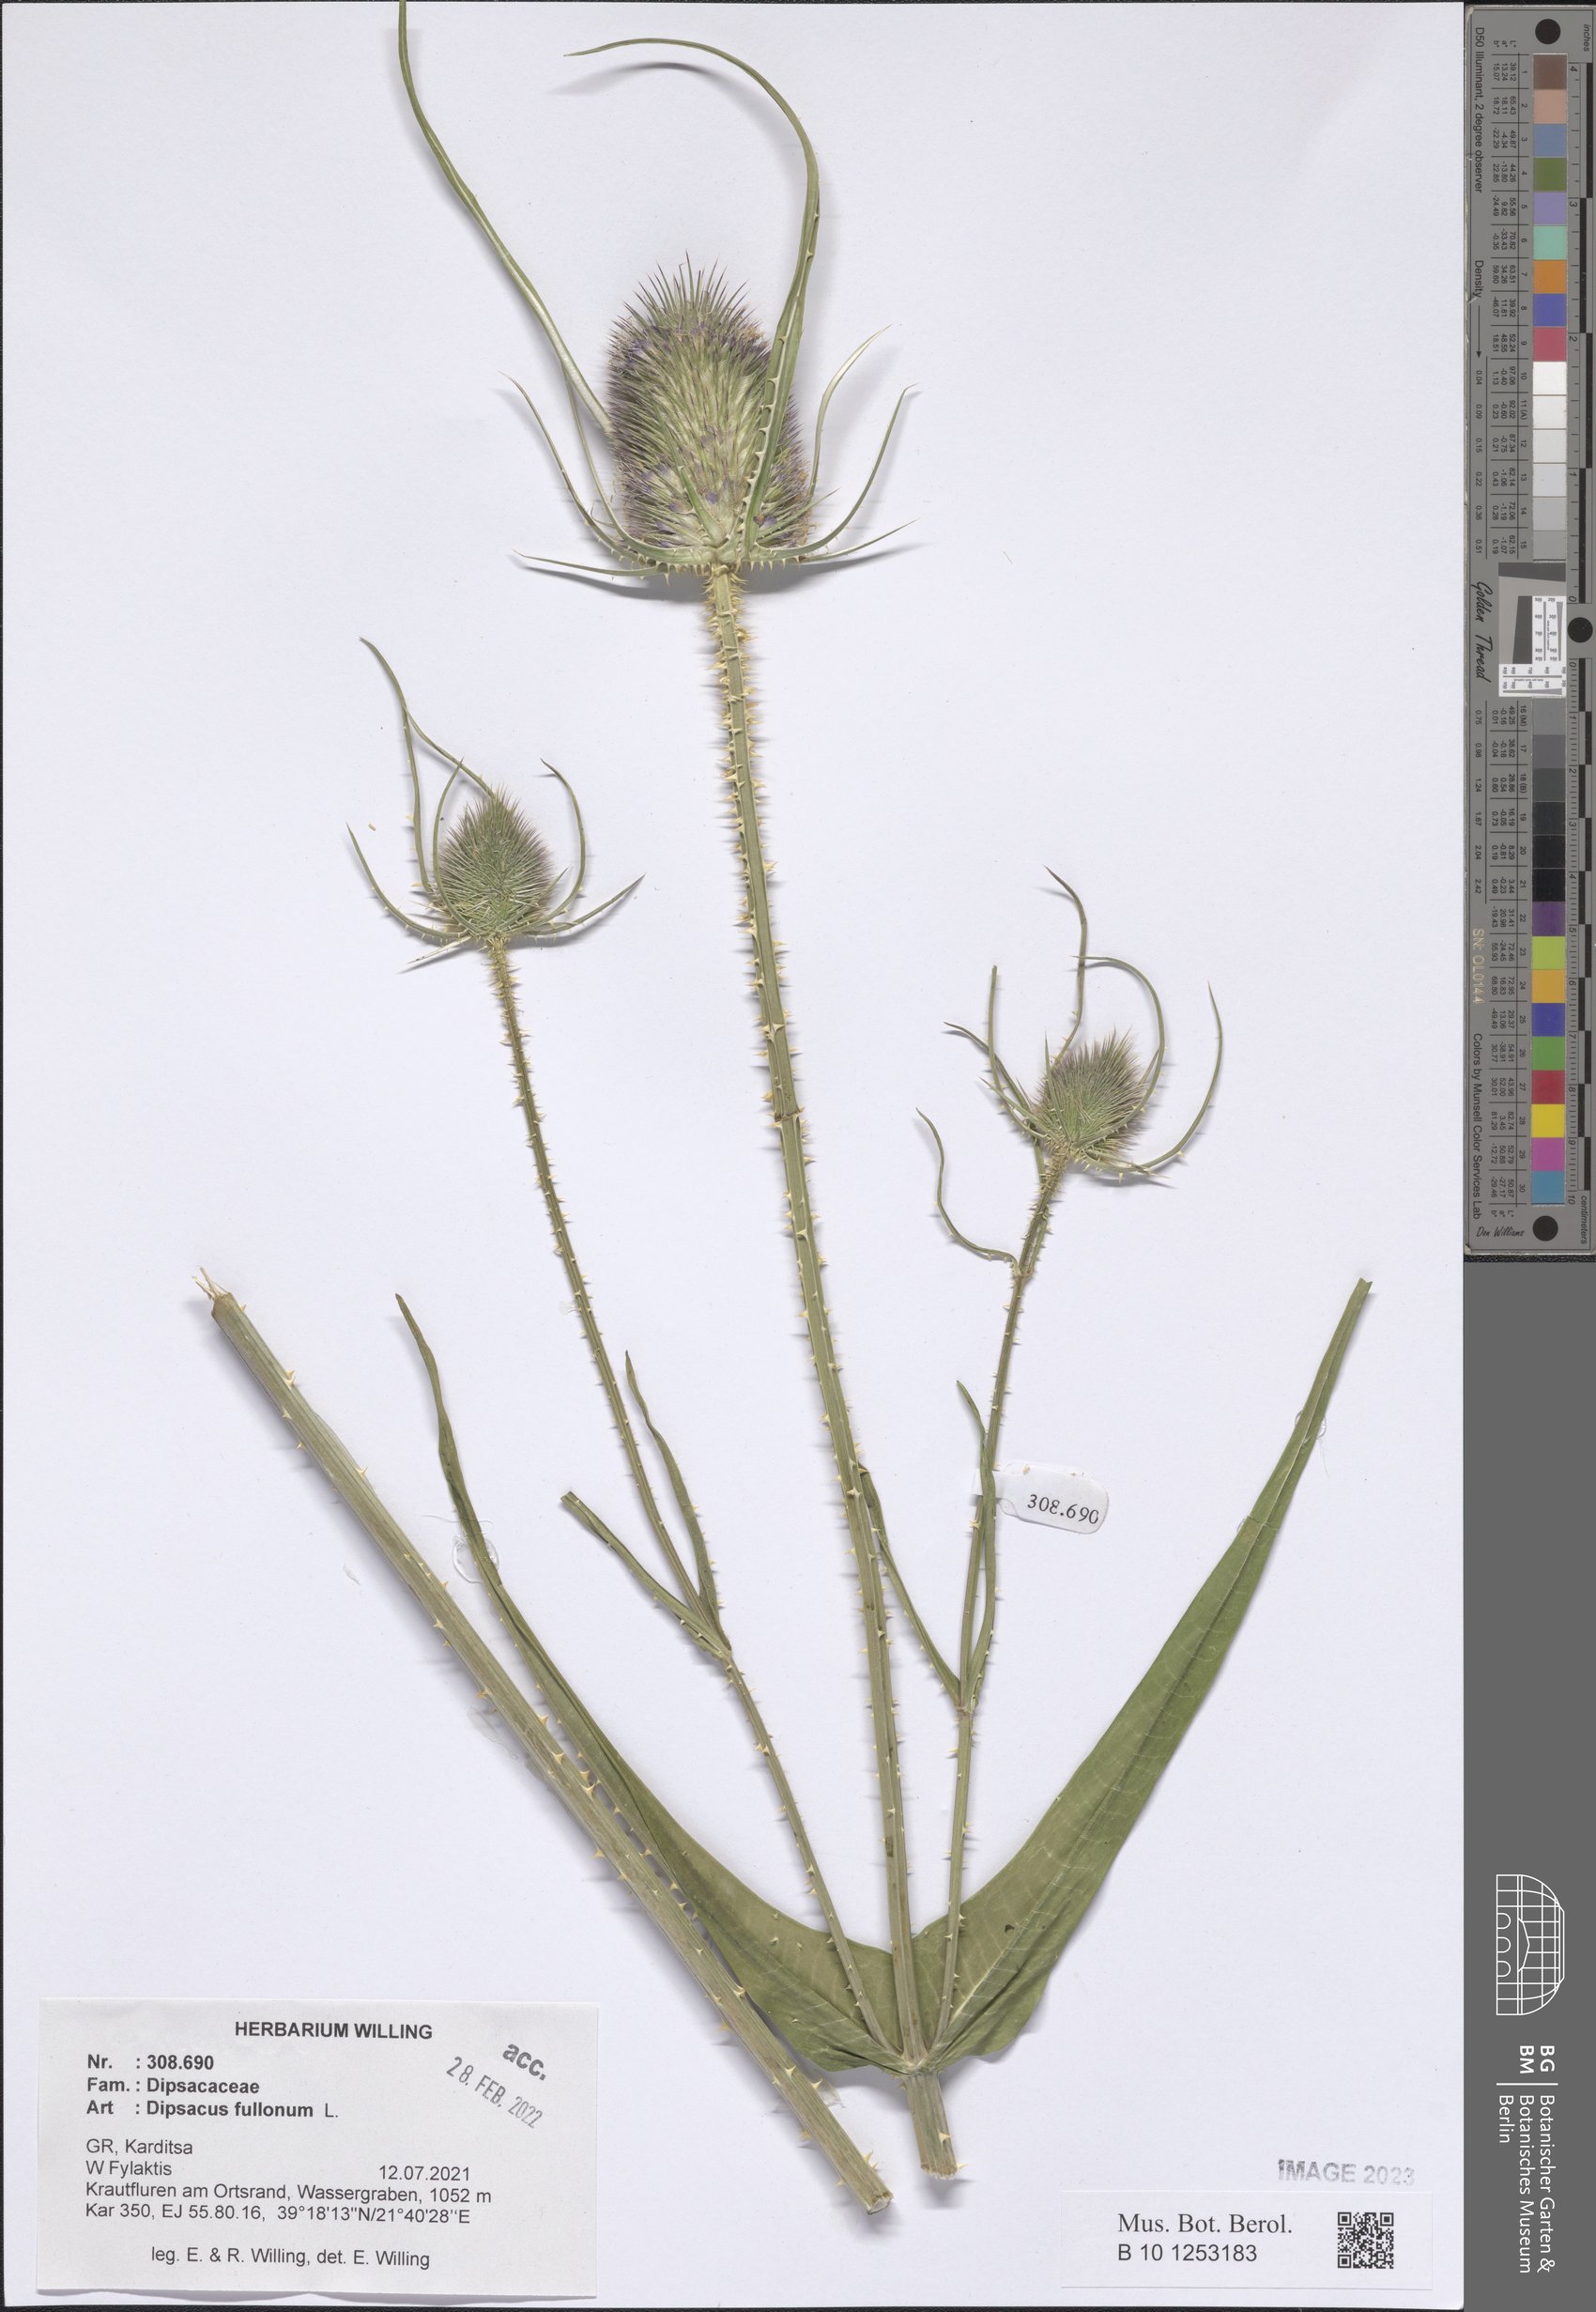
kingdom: Plantae
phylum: Tracheophyta
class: Magnoliopsida
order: Dipsacales
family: Caprifoliaceae
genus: Dipsacus
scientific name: Dipsacus fullonum
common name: Teasel
